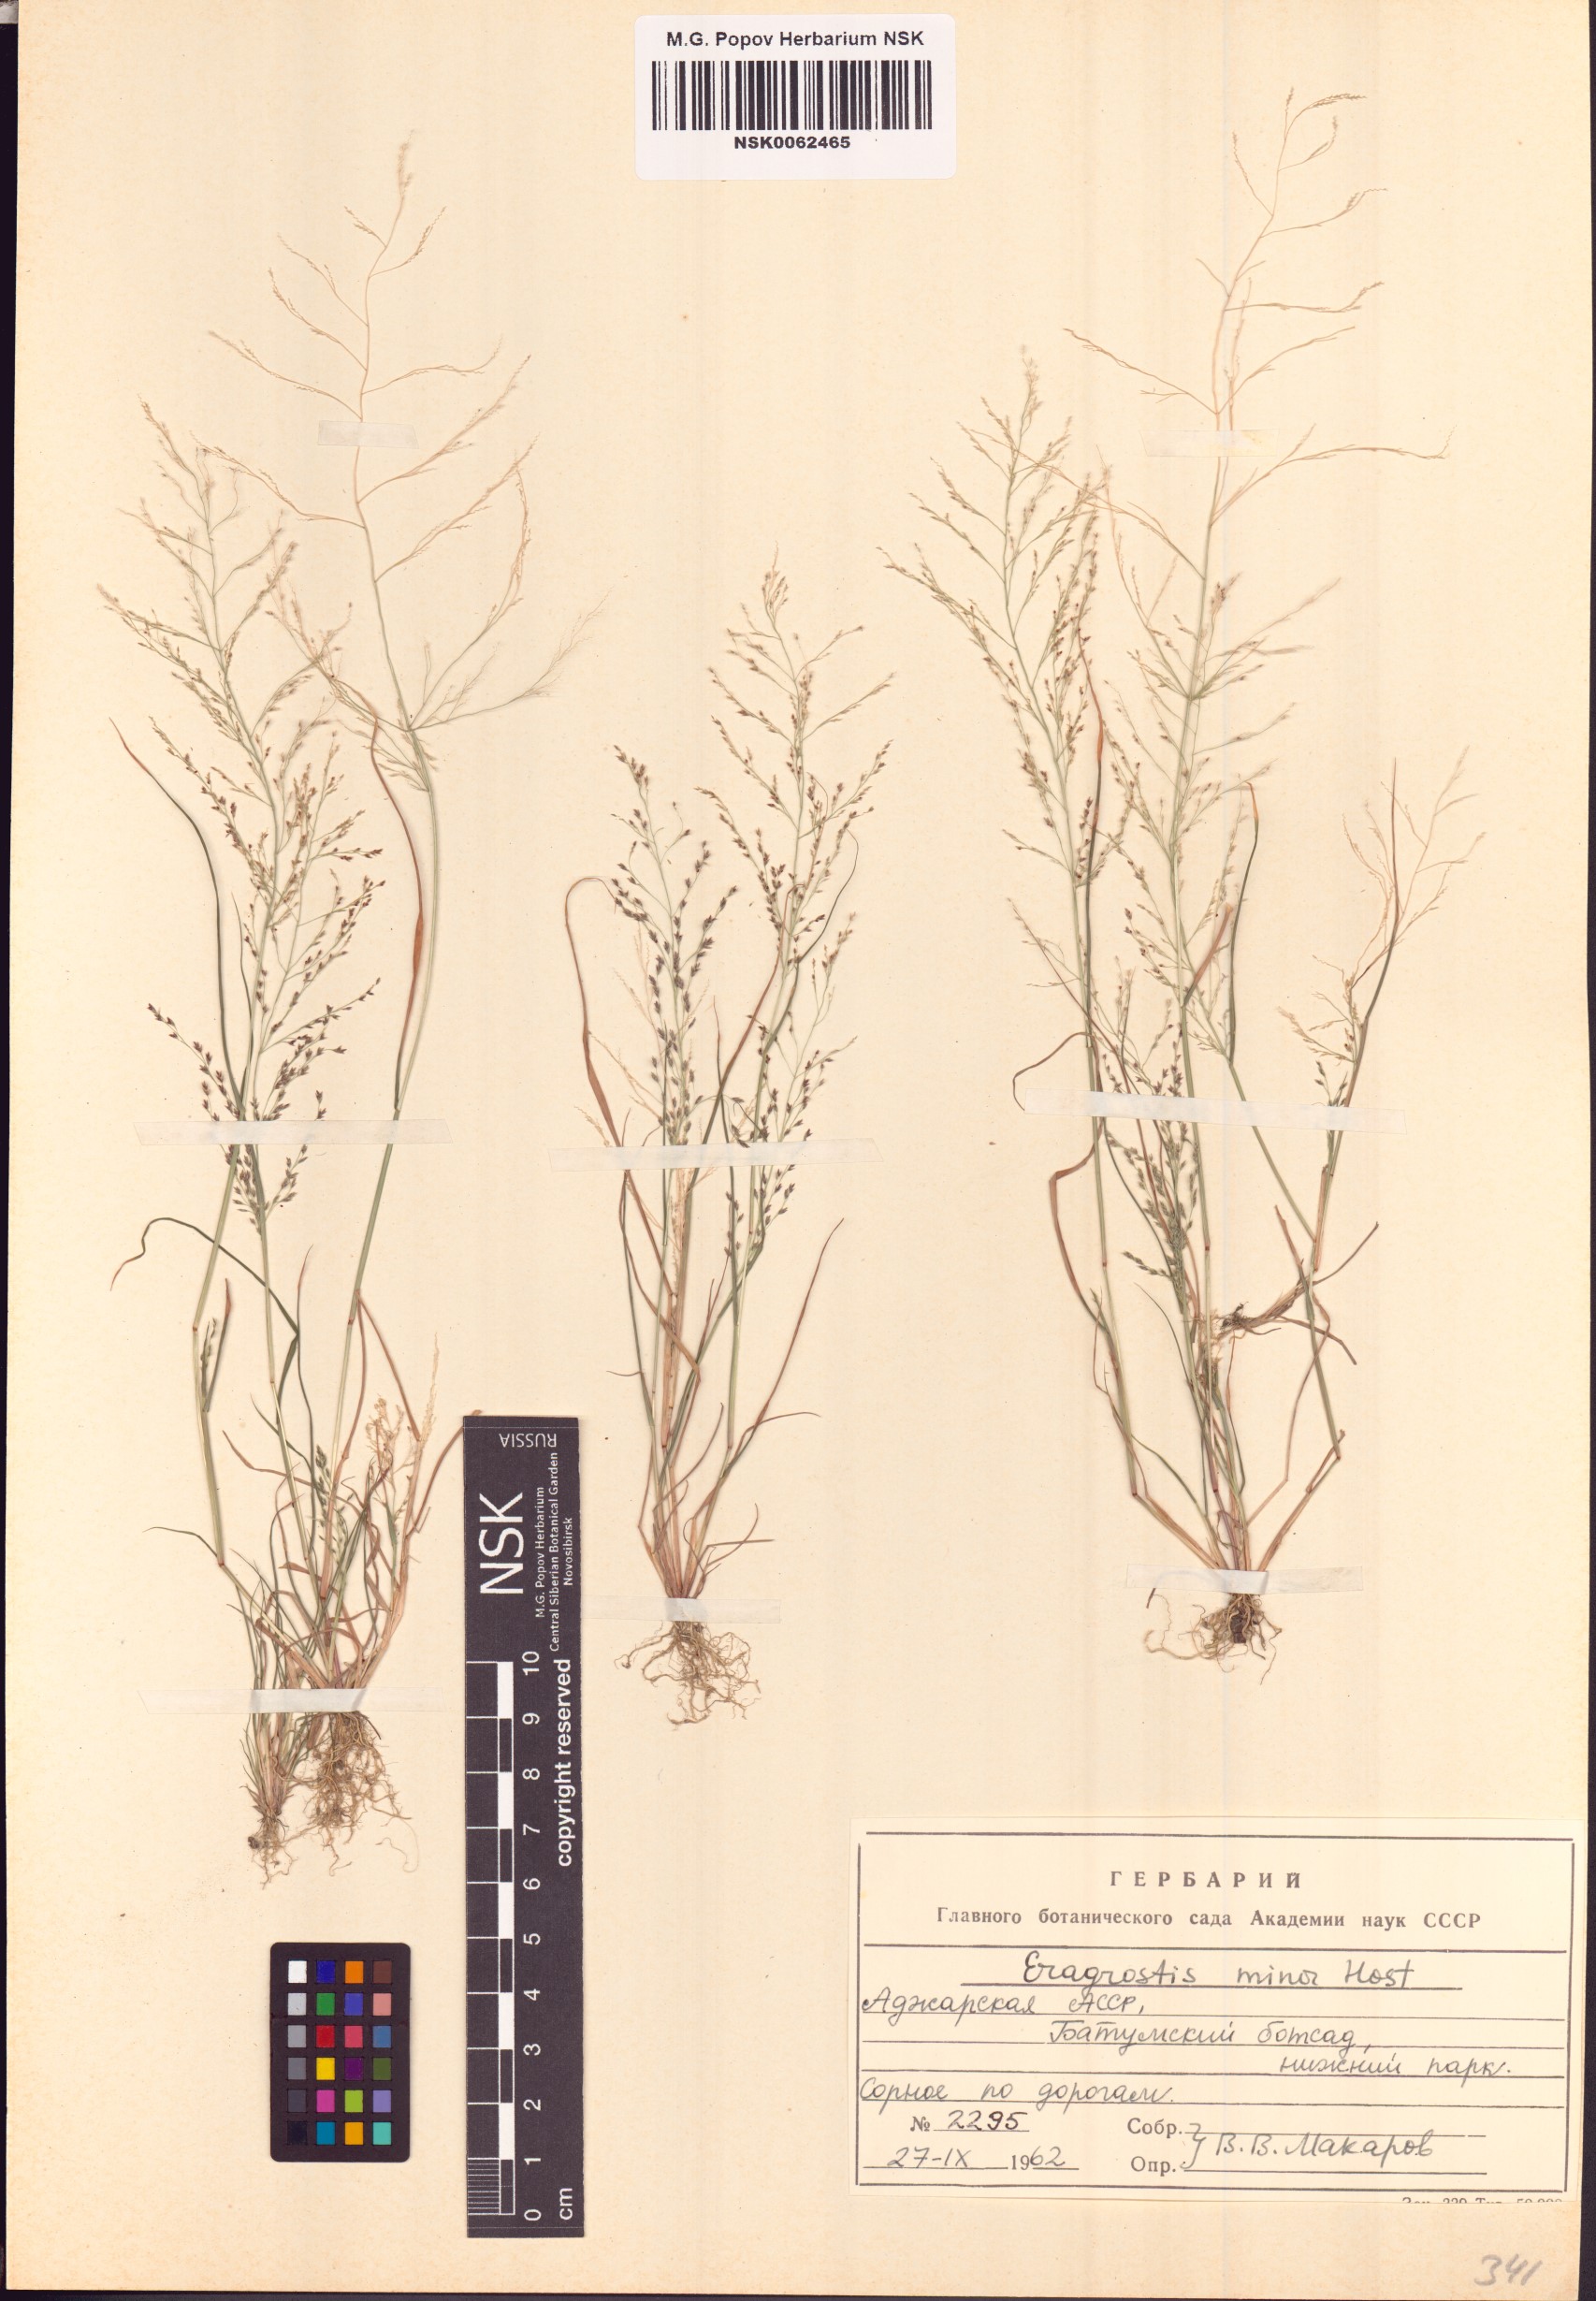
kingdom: Plantae
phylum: Tracheophyta
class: Liliopsida
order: Poales
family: Poaceae
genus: Eragrostis
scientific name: Eragrostis minor
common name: Small love-grass
